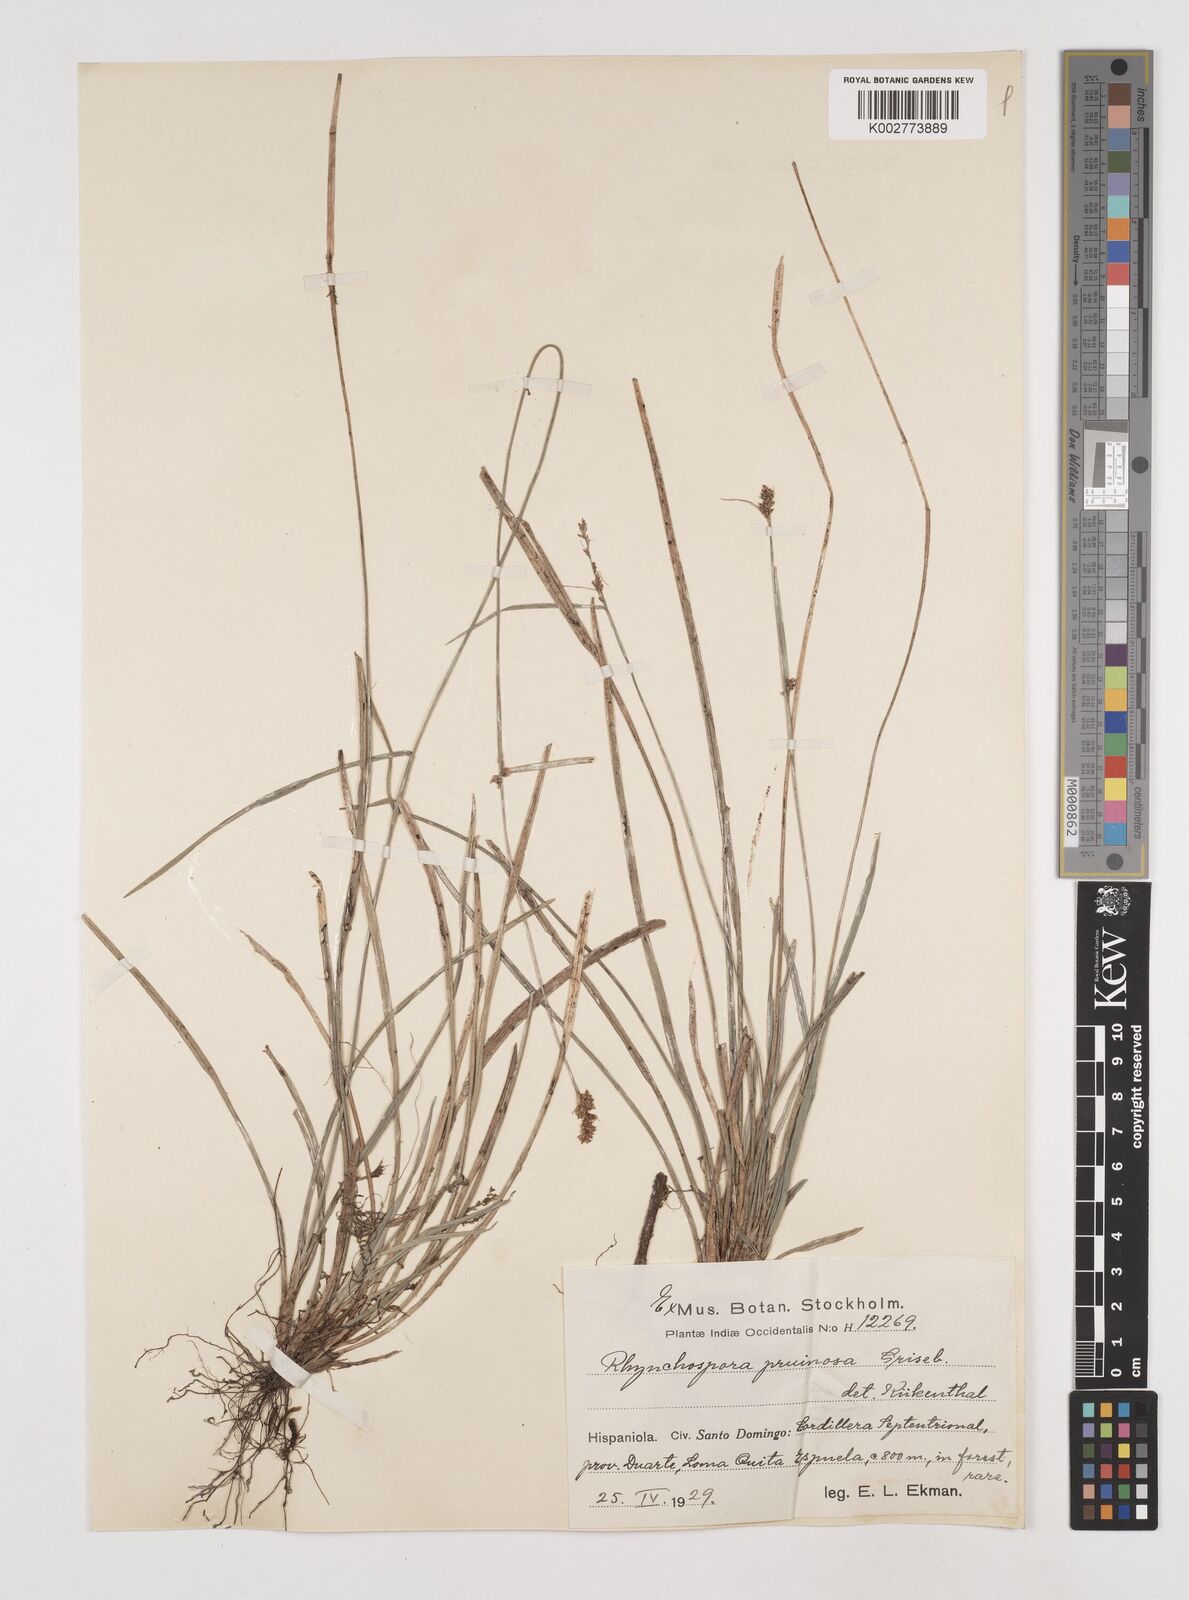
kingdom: Plantae
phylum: Tracheophyta
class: Liliopsida
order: Poales
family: Cyperaceae
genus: Rhynchospora
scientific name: Rhynchospora pruinosa
